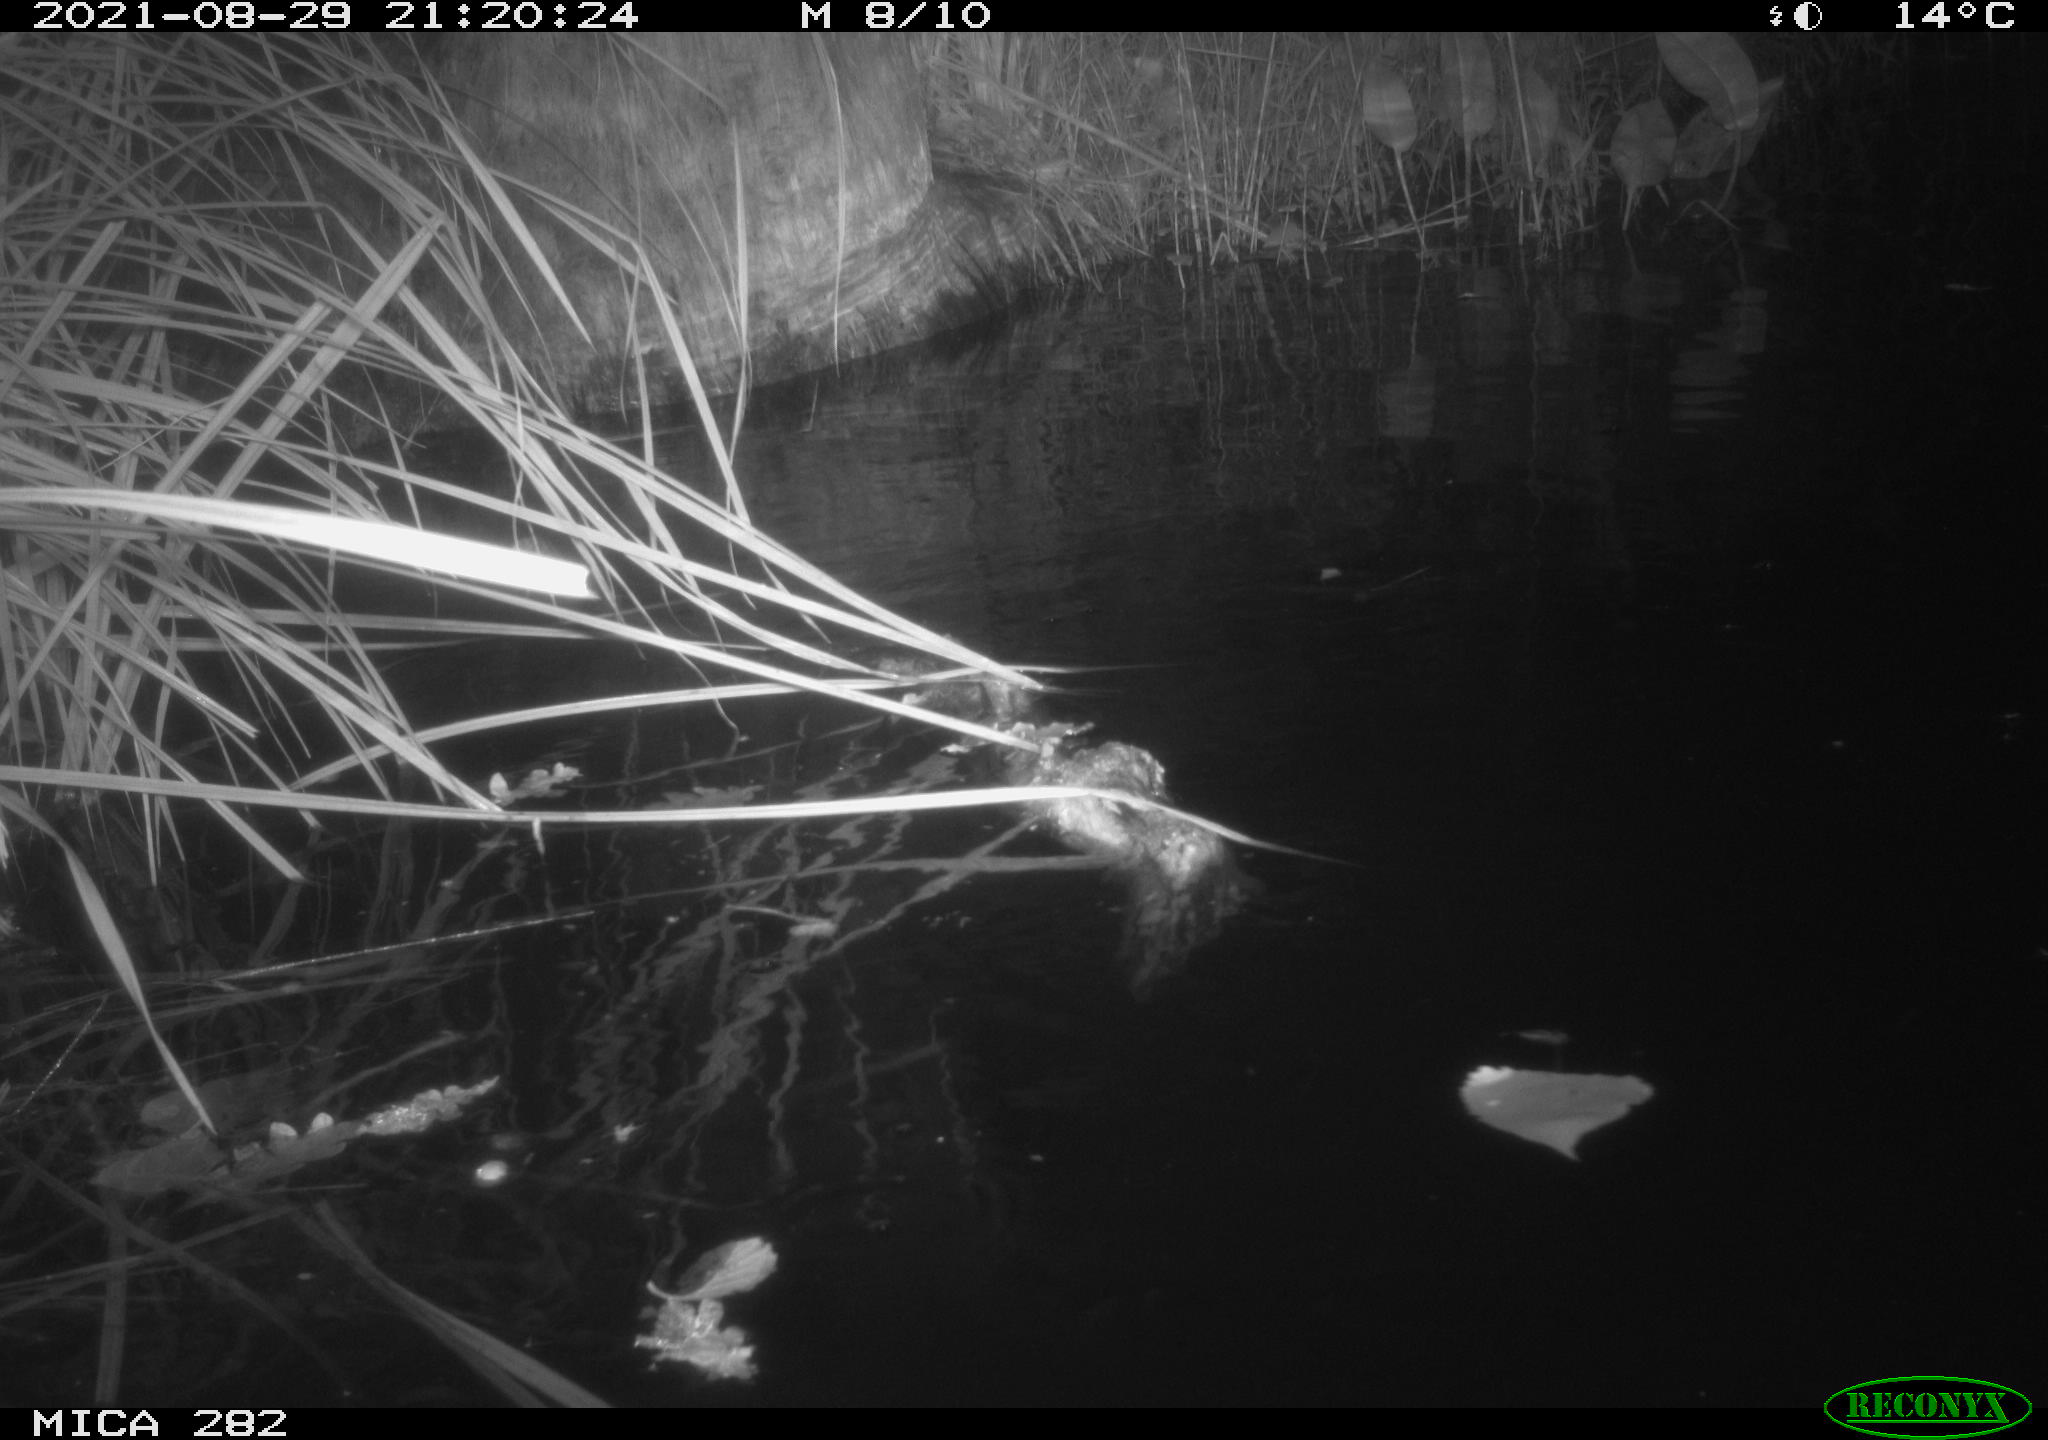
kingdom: Animalia
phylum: Chordata
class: Mammalia
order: Rodentia
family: Castoridae
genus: Castor
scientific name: Castor fiber
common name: Eurasian beaver
